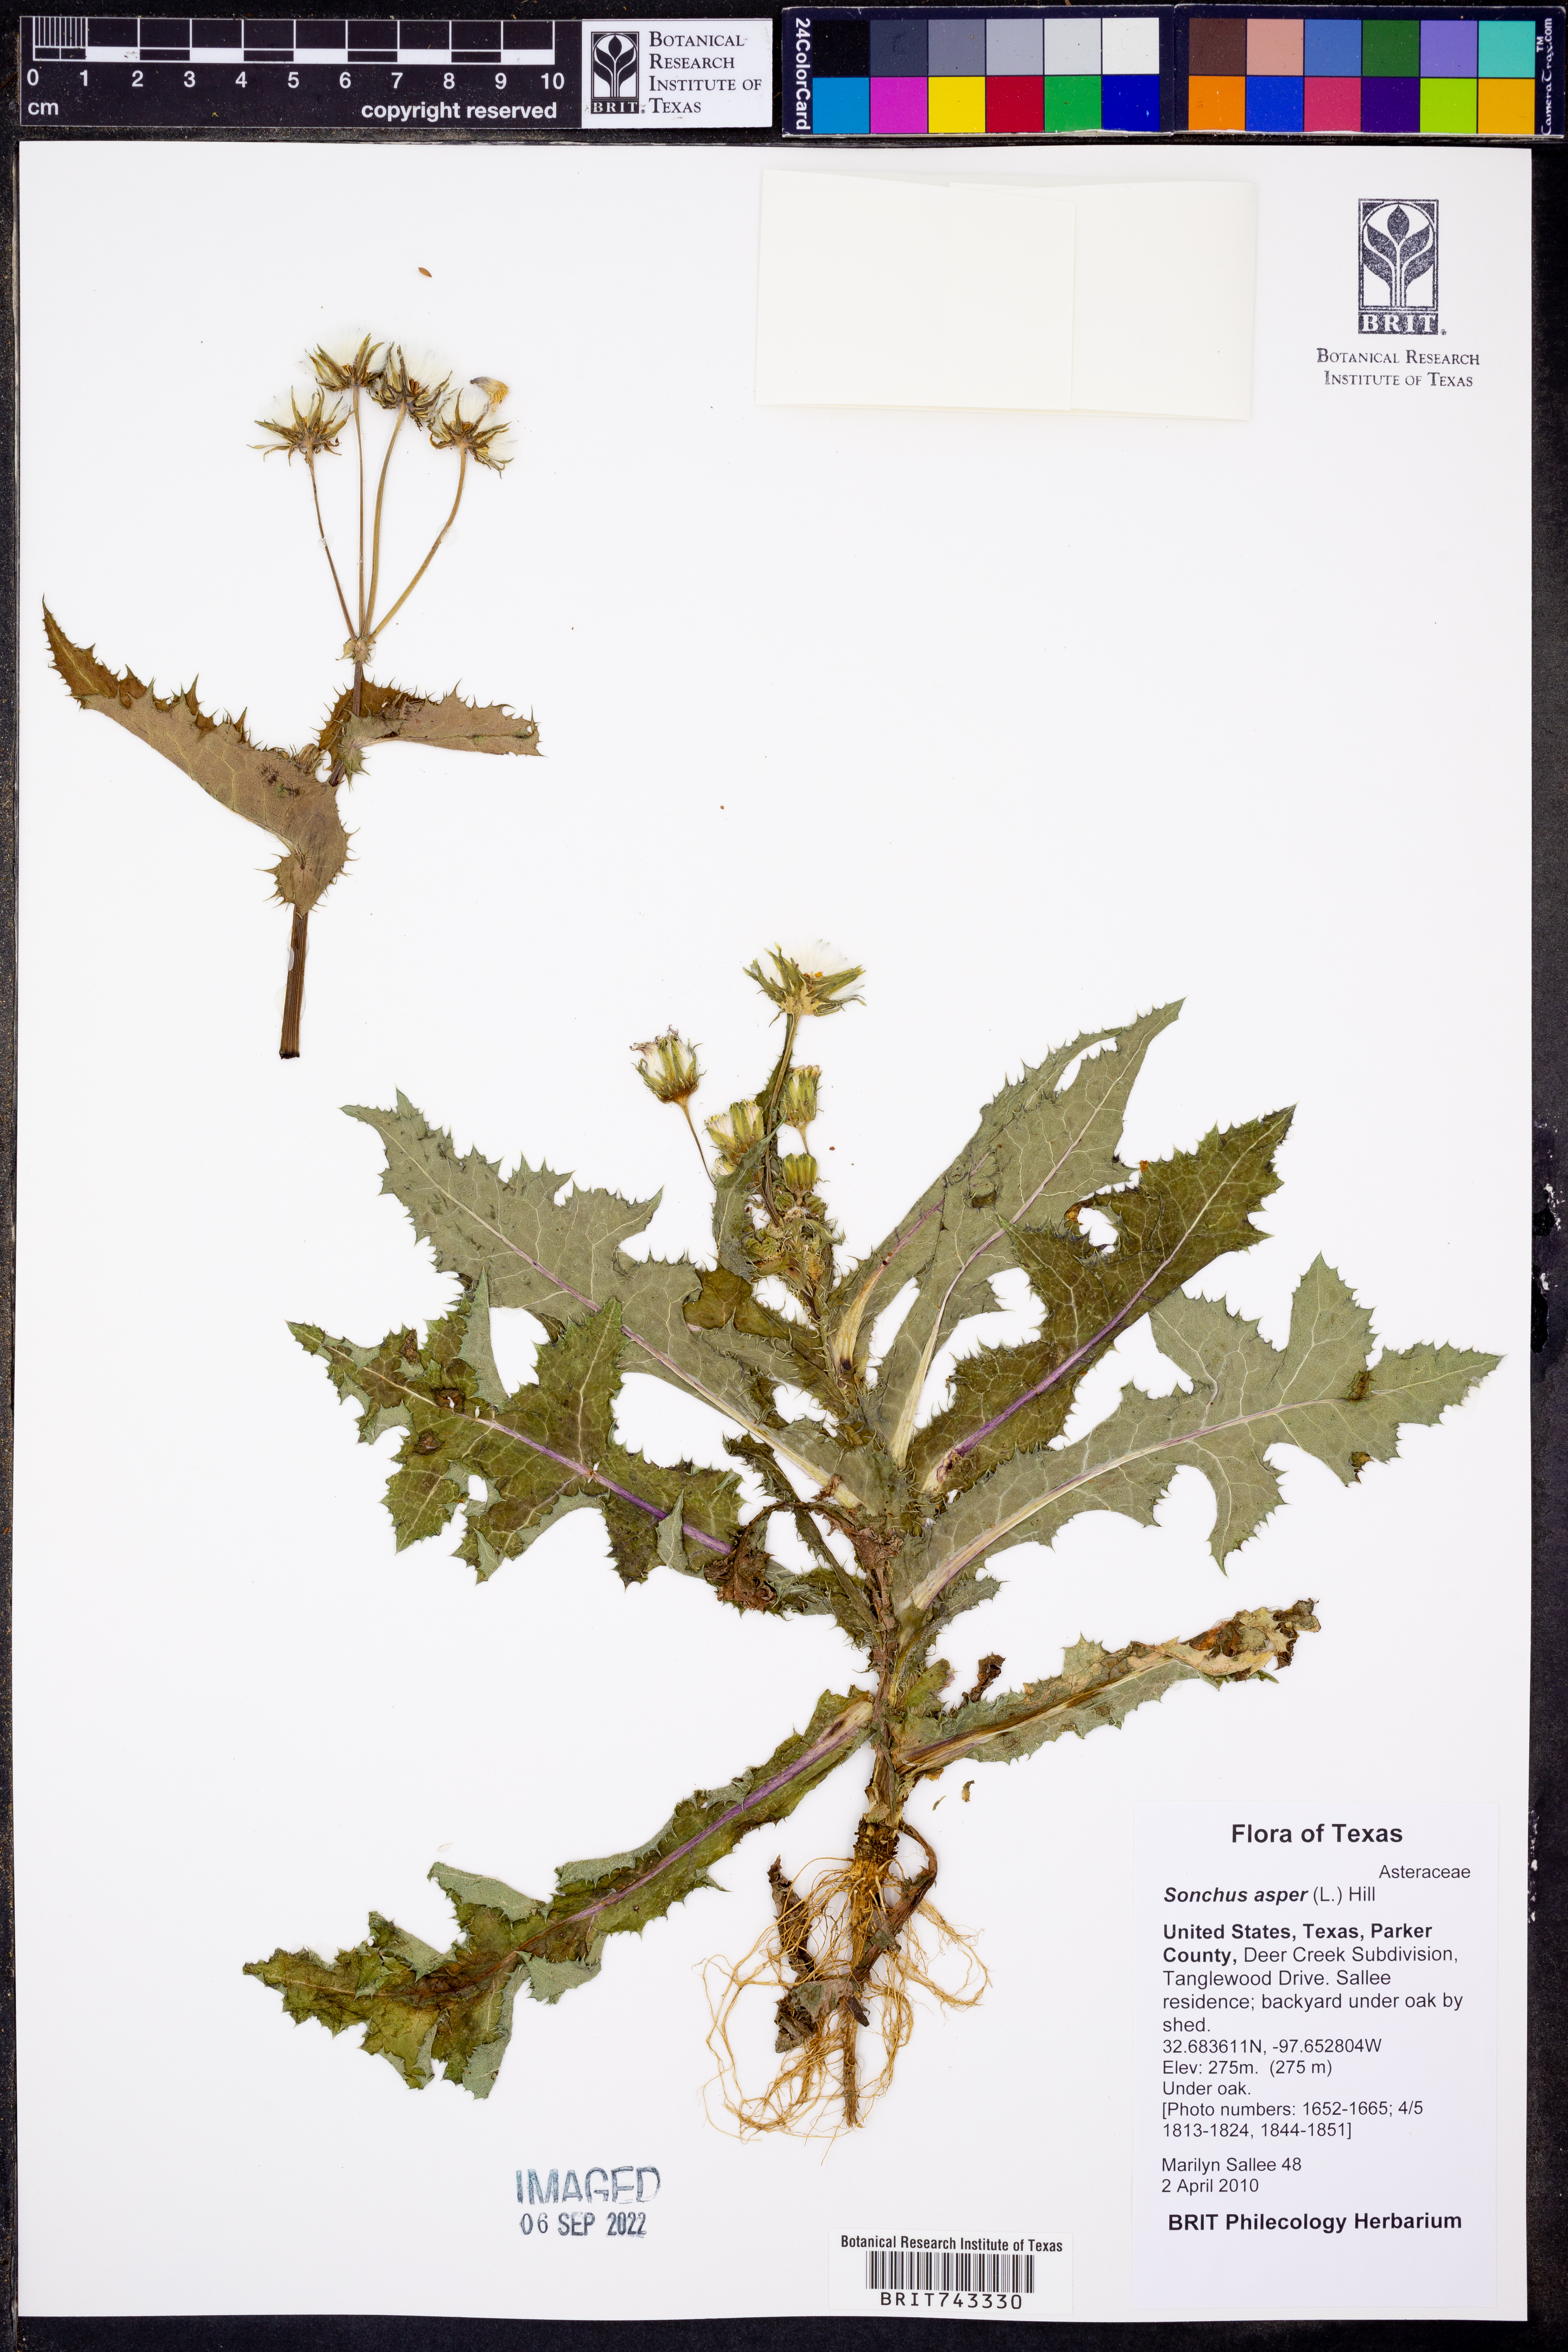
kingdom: Plantae
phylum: Tracheophyta
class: Magnoliopsida
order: Asterales
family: Asteraceae
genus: Sonchus
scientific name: Sonchus asper
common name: Prickly sow-thistle
